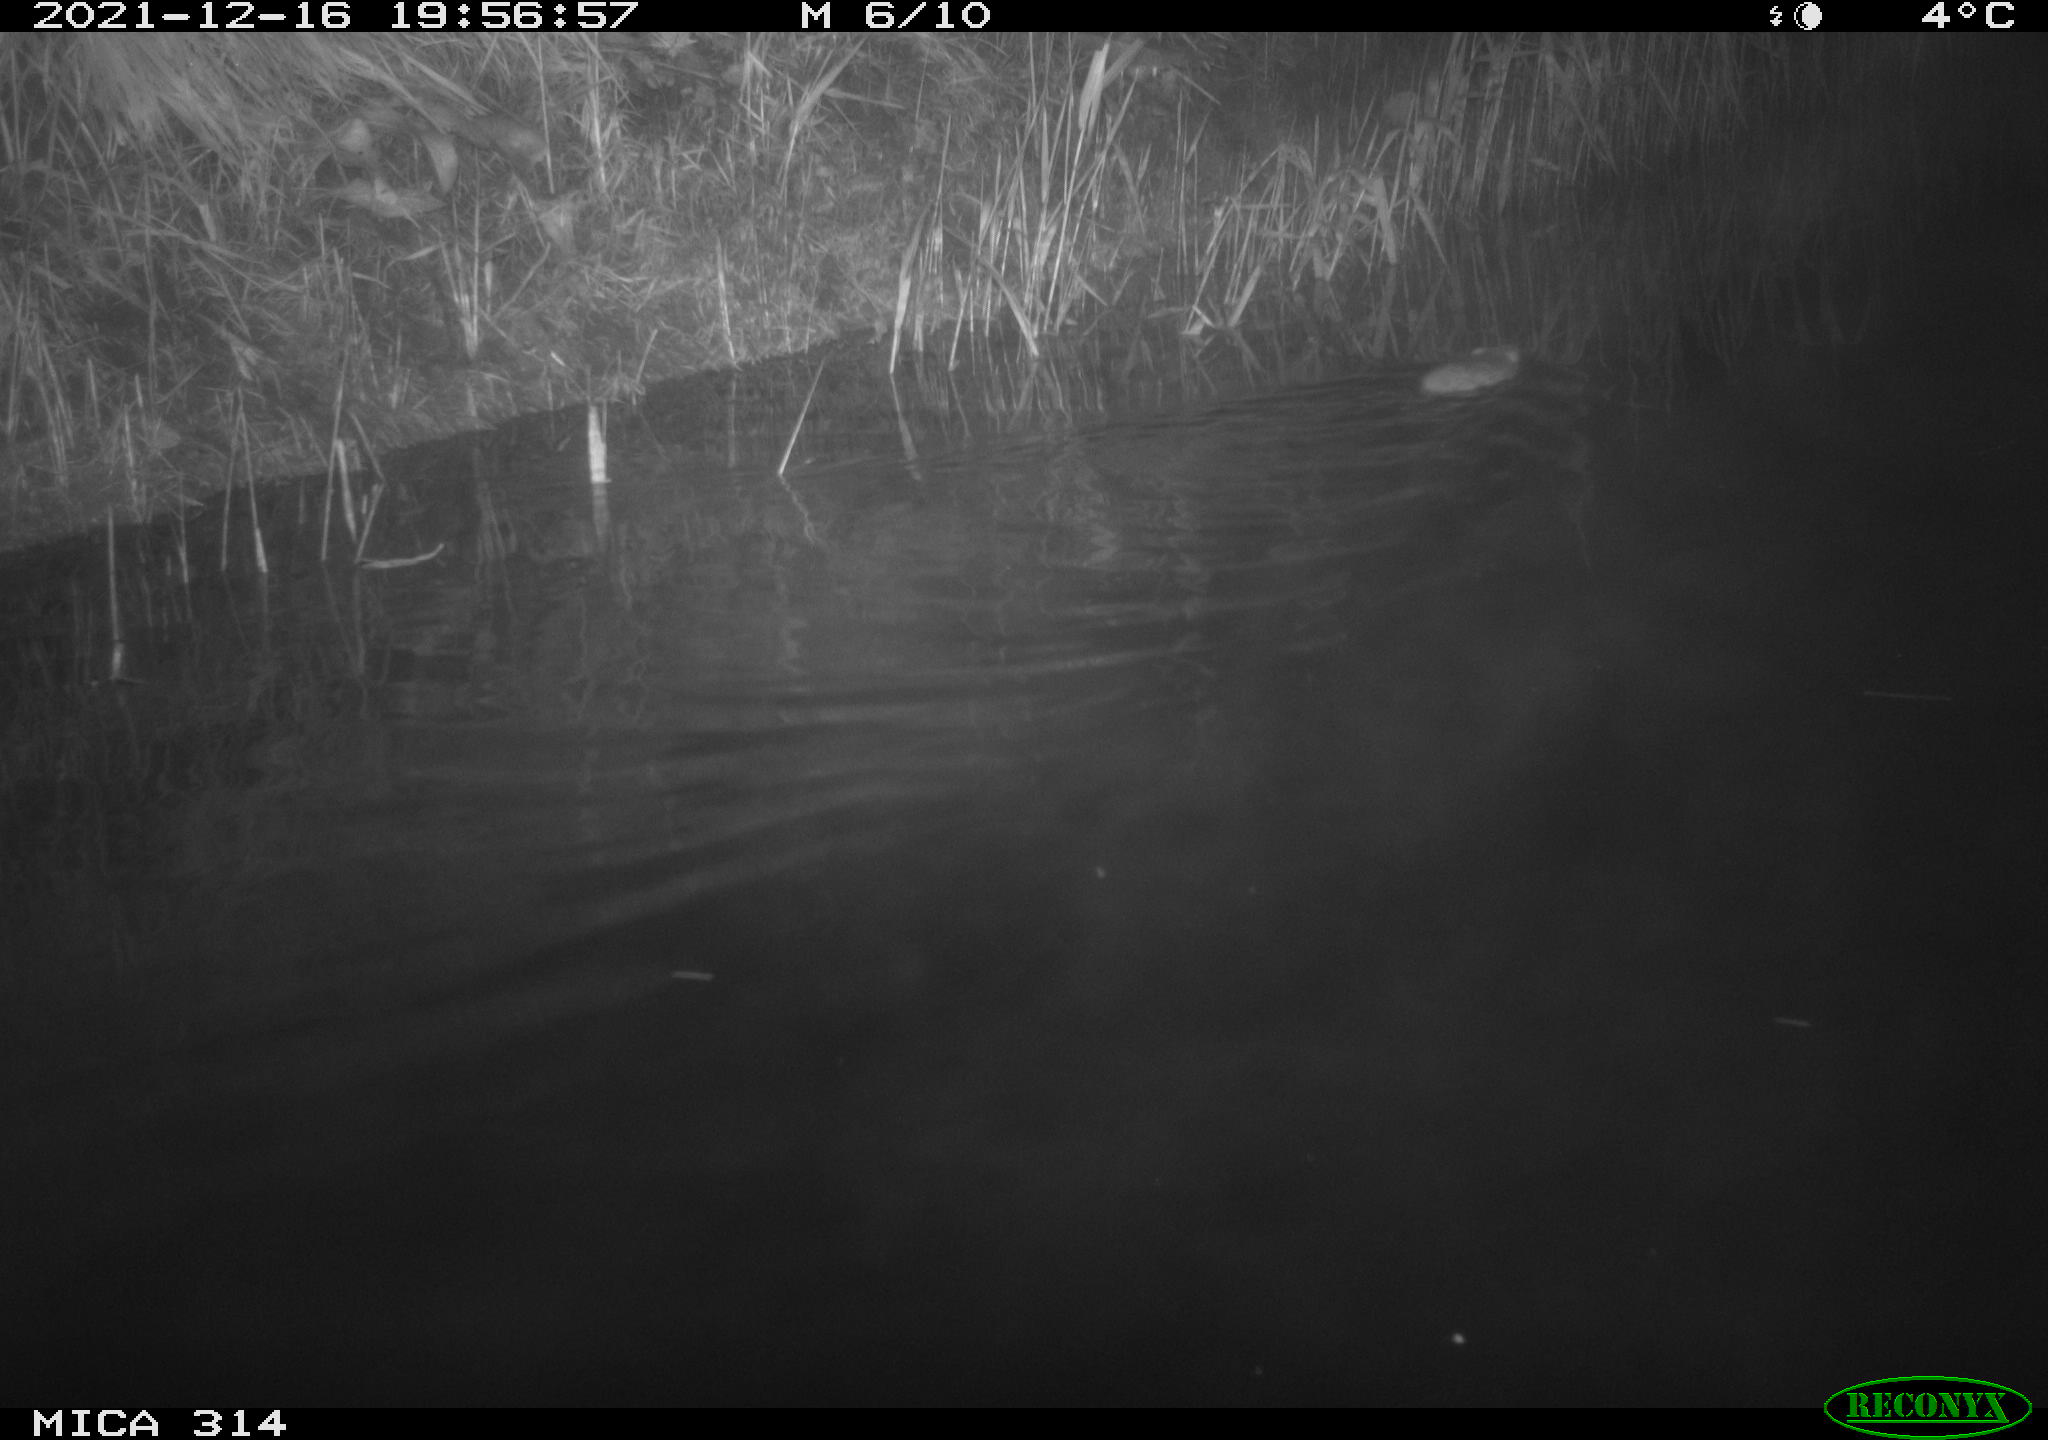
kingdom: Animalia
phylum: Chordata
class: Mammalia
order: Rodentia
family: Muridae
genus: Rattus
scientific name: Rattus norvegicus
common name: Brown rat
